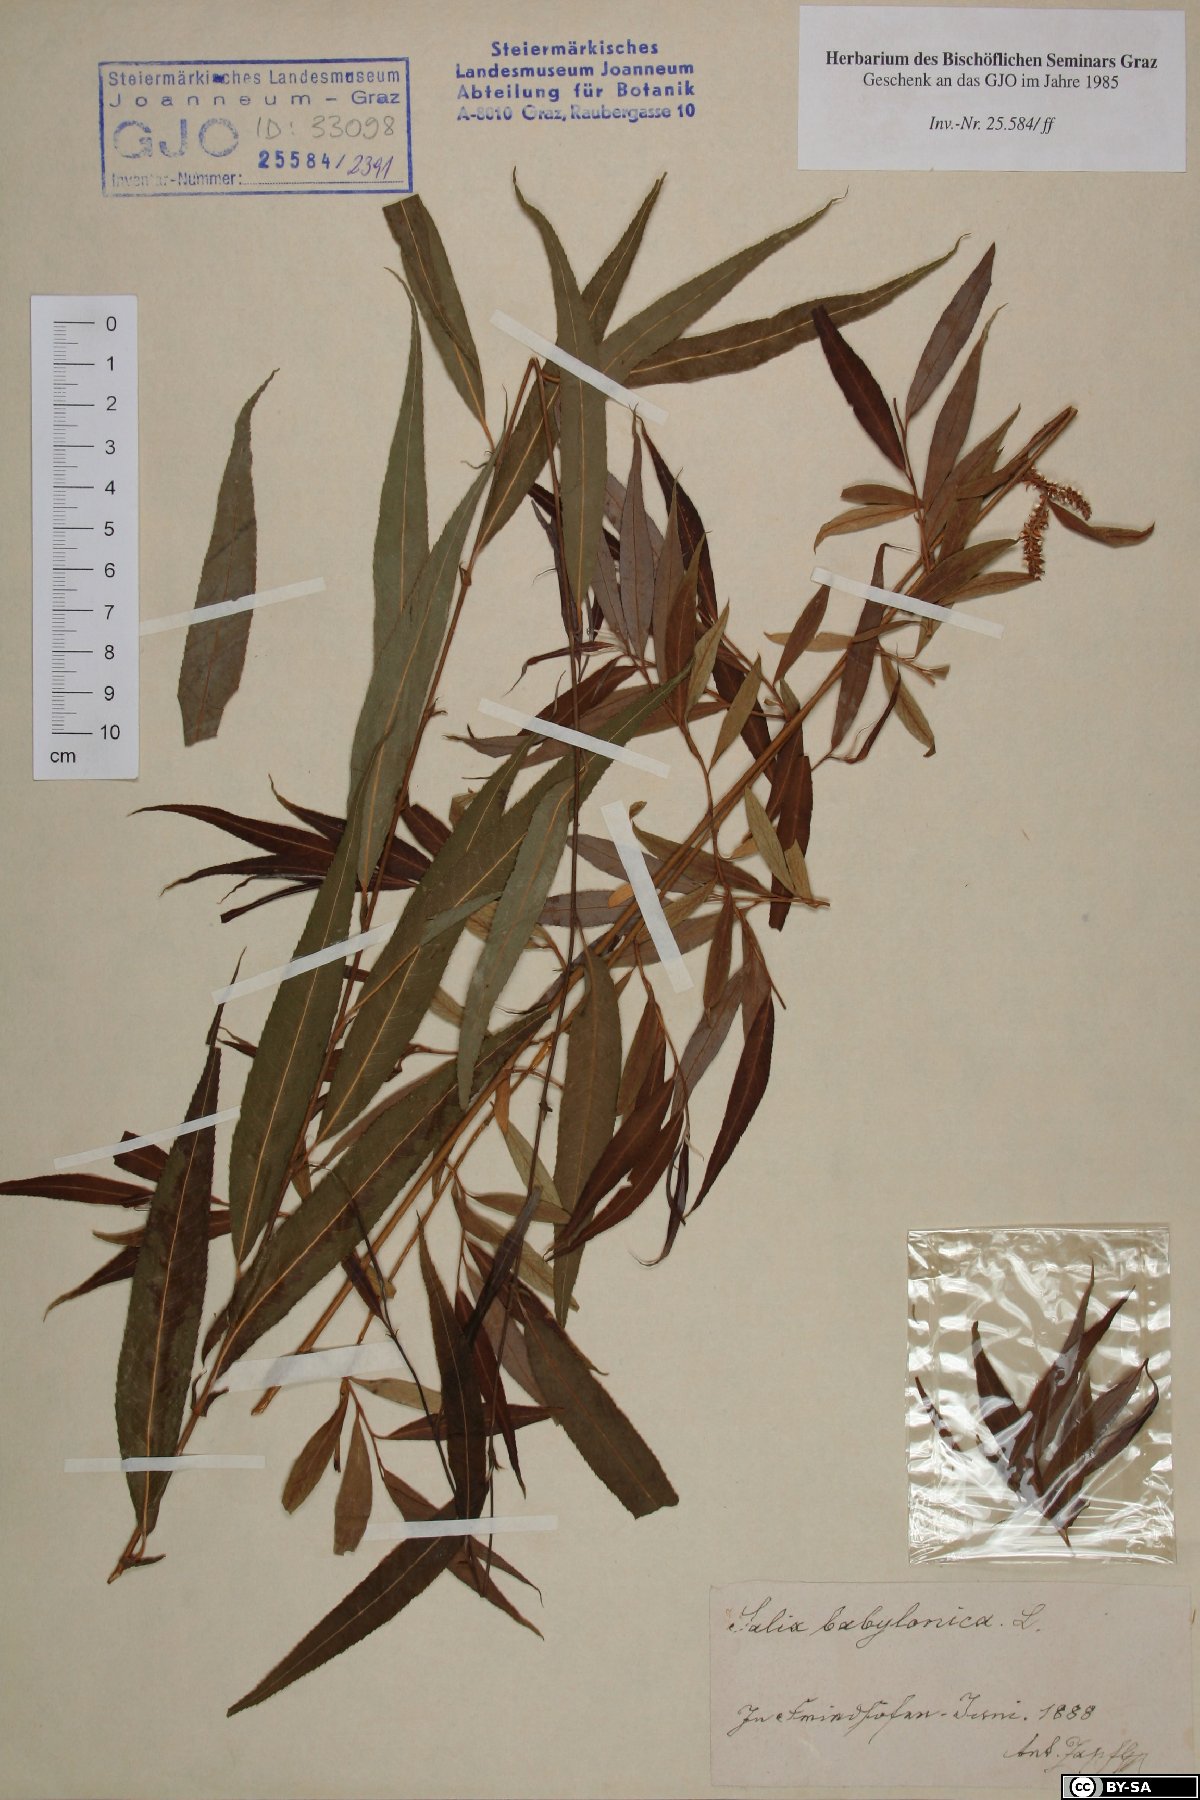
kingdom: Plantae
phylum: Tracheophyta
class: Magnoliopsida
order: Malpighiales
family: Salicaceae
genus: Salix
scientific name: Salix babylonica
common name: Weeping willow
